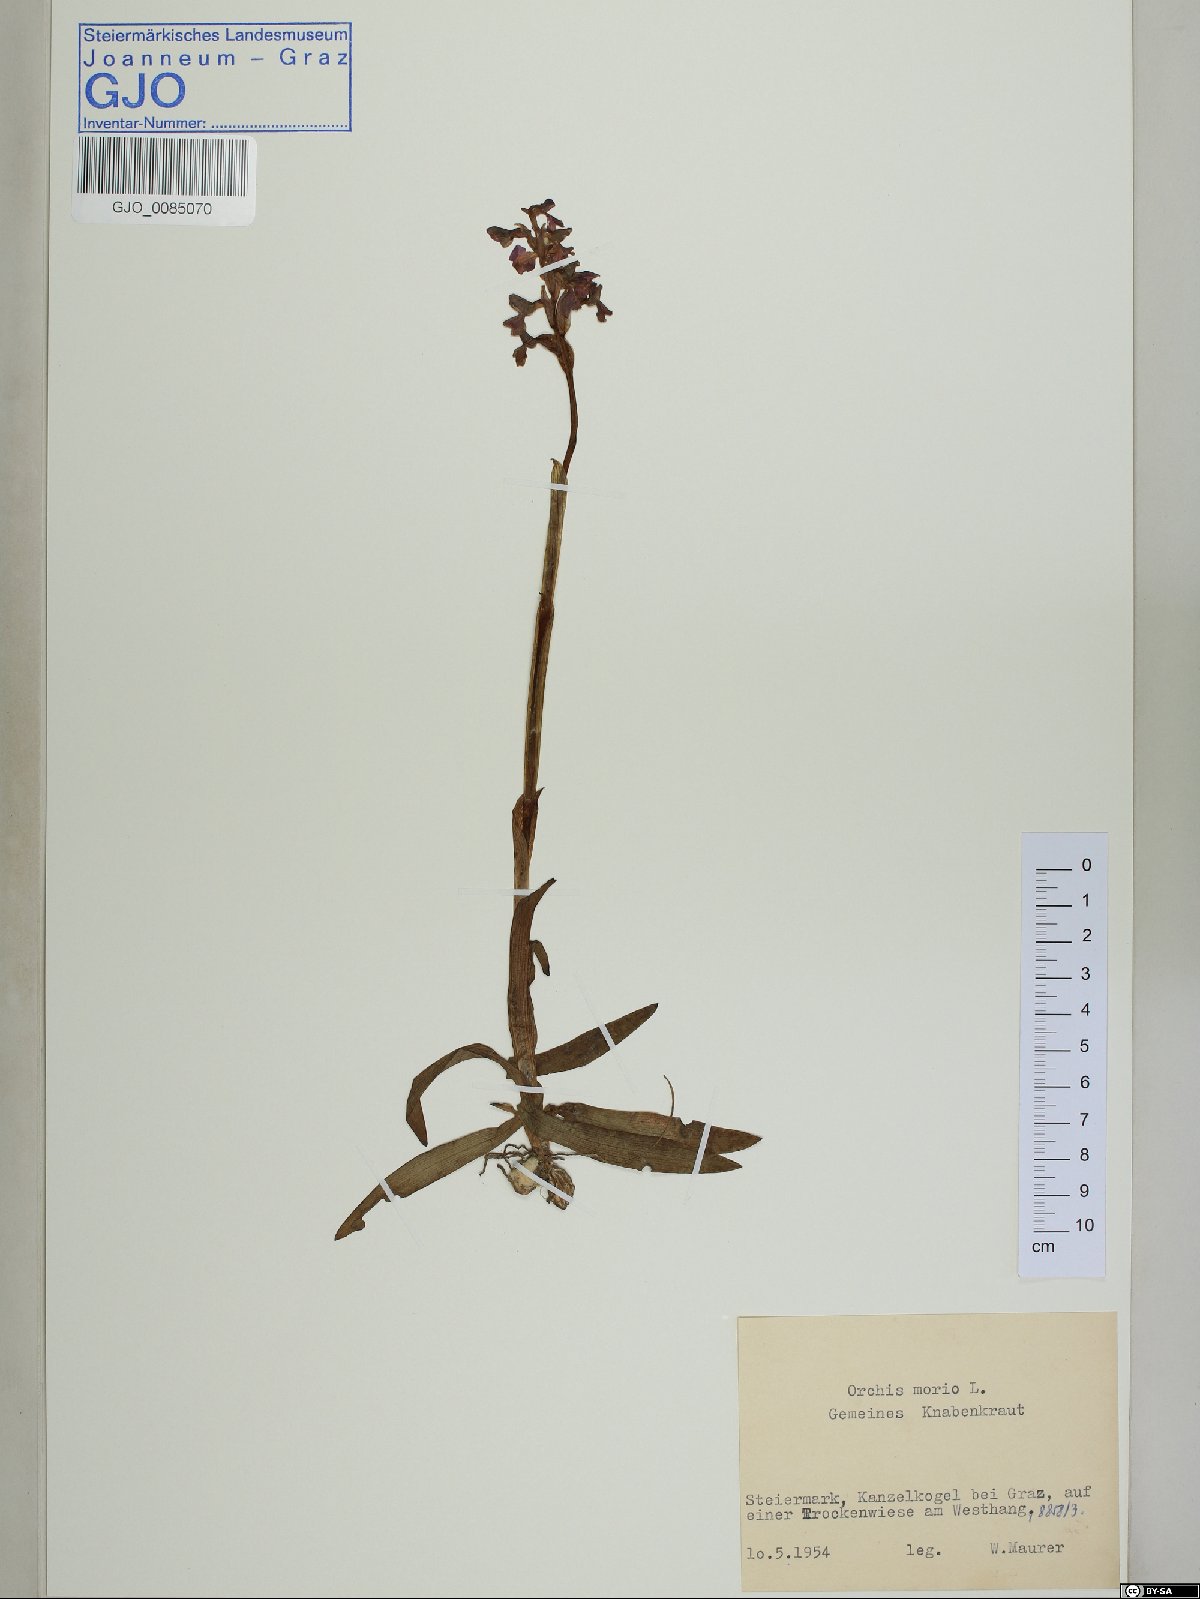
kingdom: Plantae
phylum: Tracheophyta
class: Liliopsida
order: Asparagales
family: Orchidaceae
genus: Anacamptis
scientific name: Anacamptis morio
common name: Green-winged orchid
